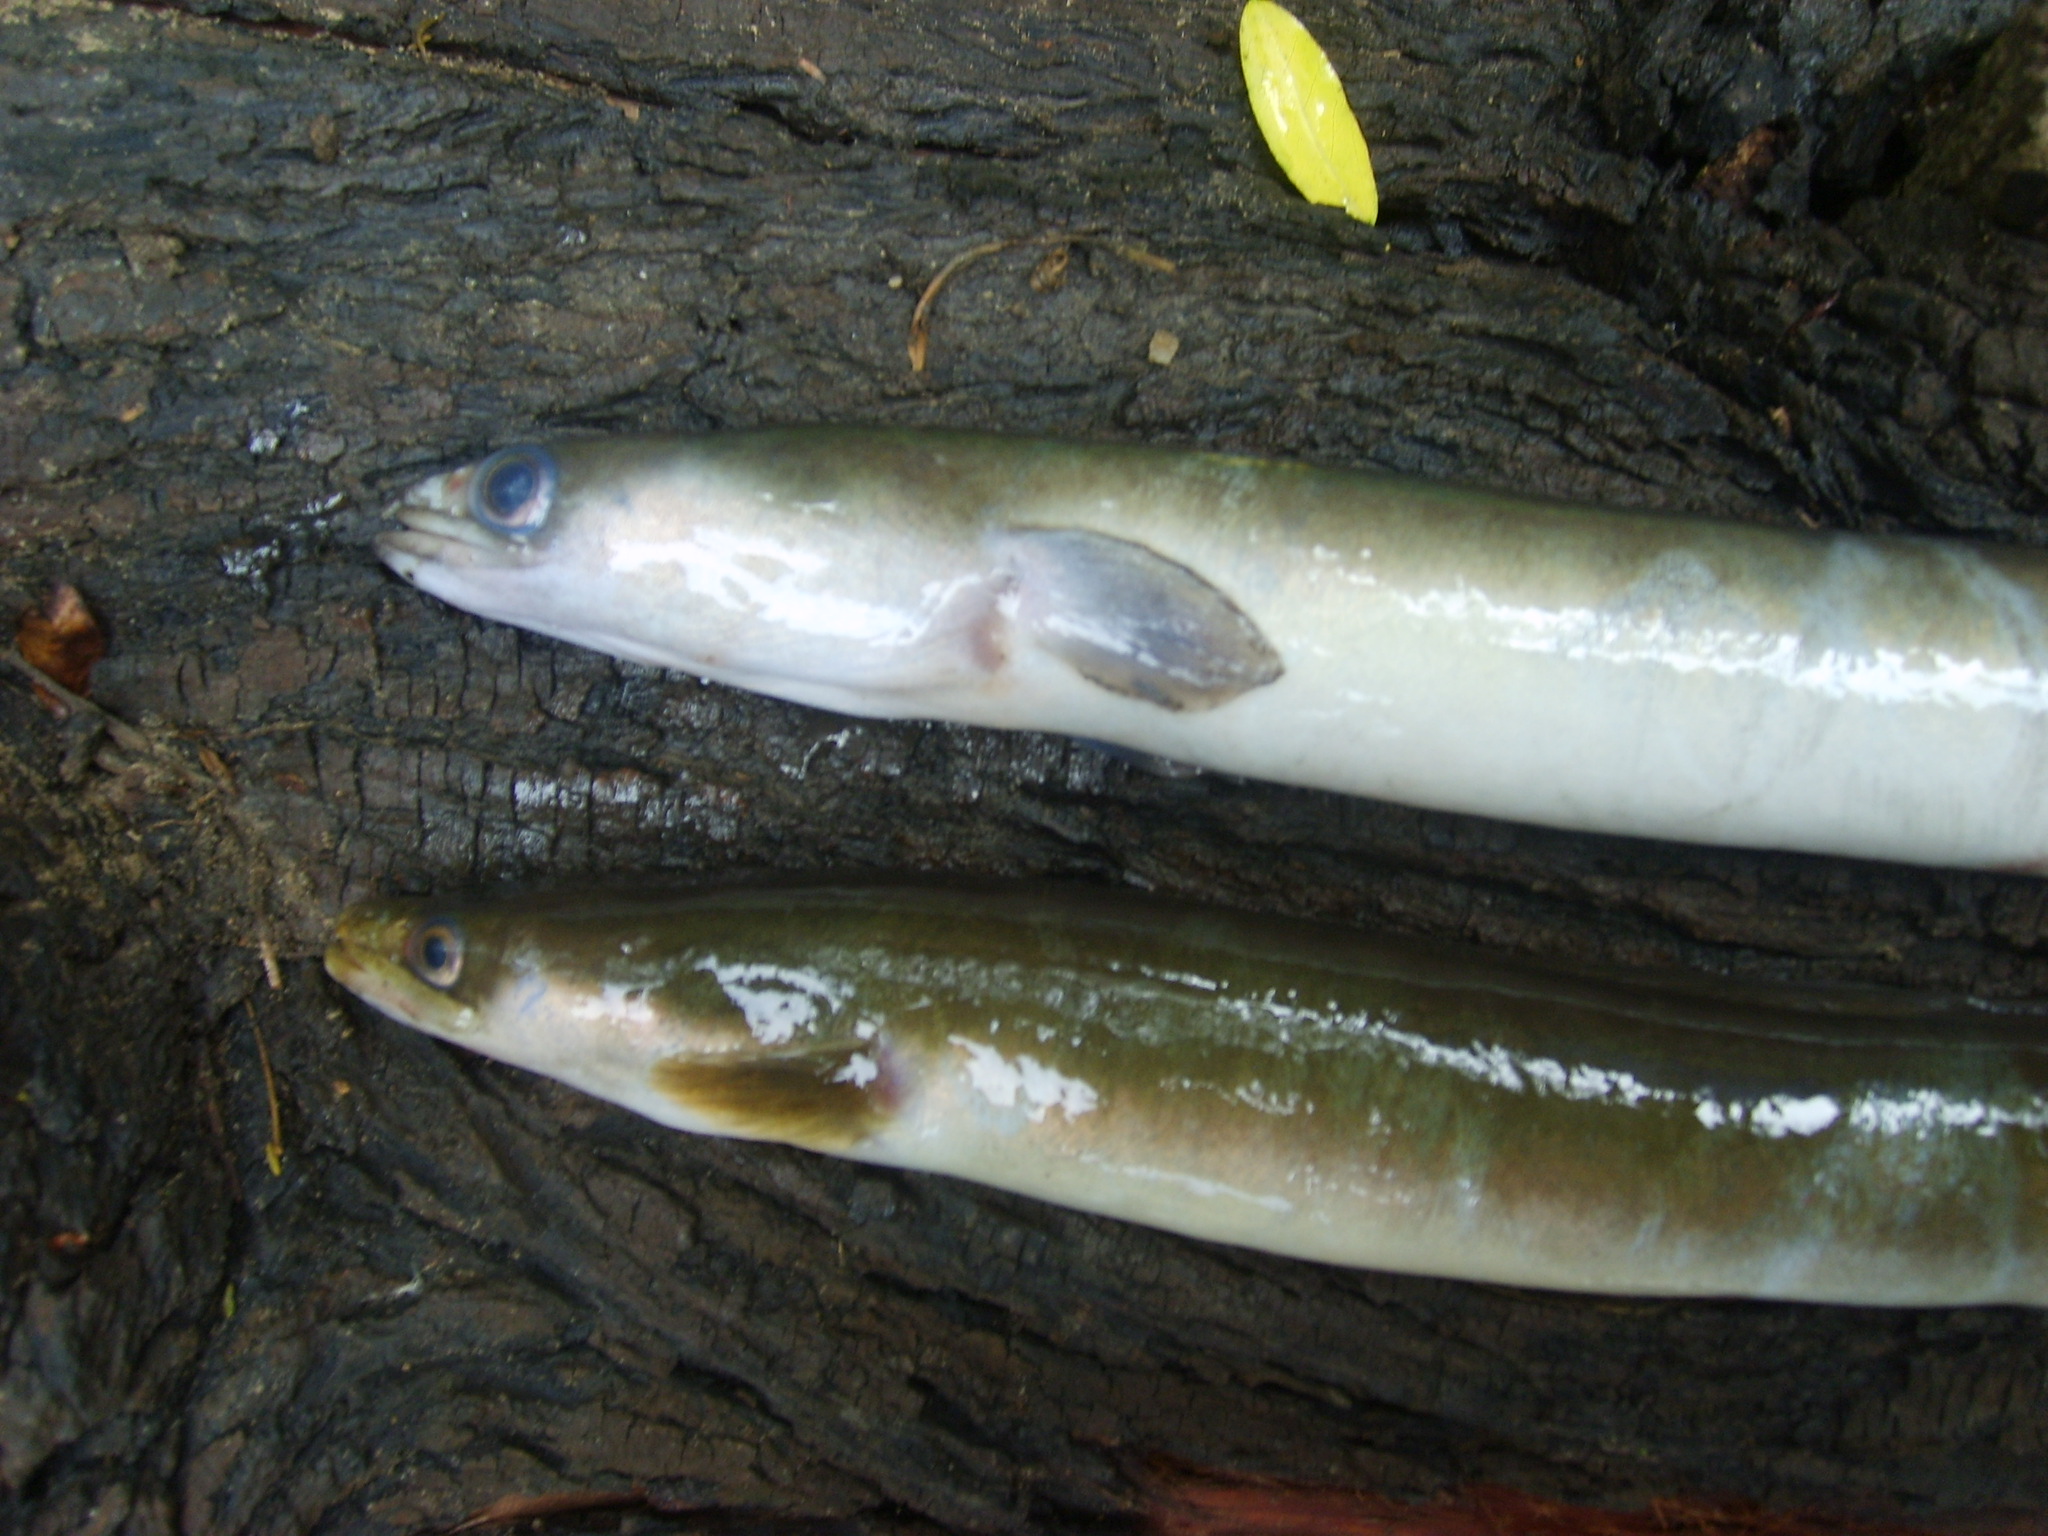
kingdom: Animalia
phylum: Chordata
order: Anguilliformes
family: Anguillidae
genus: Anguilla
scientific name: Anguilla mossambica
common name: African longfin eel
